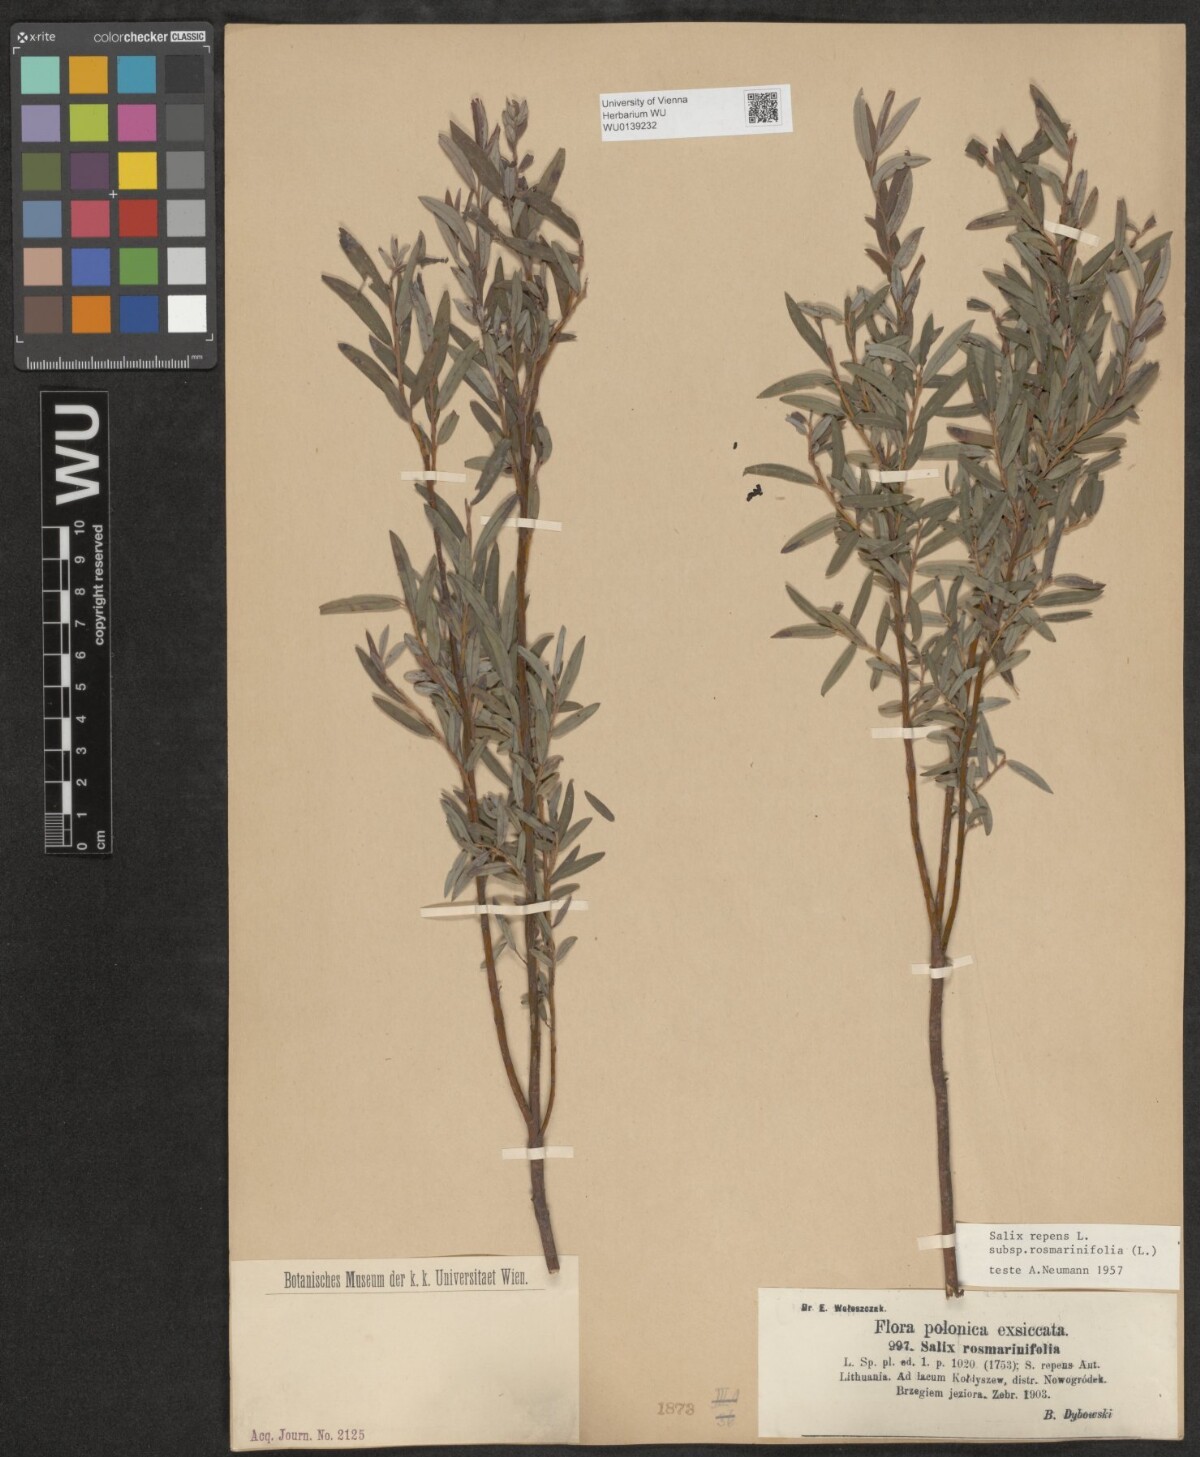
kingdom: Plantae
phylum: Tracheophyta
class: Magnoliopsida
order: Malpighiales
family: Salicaceae
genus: Salix
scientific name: Salix repens
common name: Creeping willow
